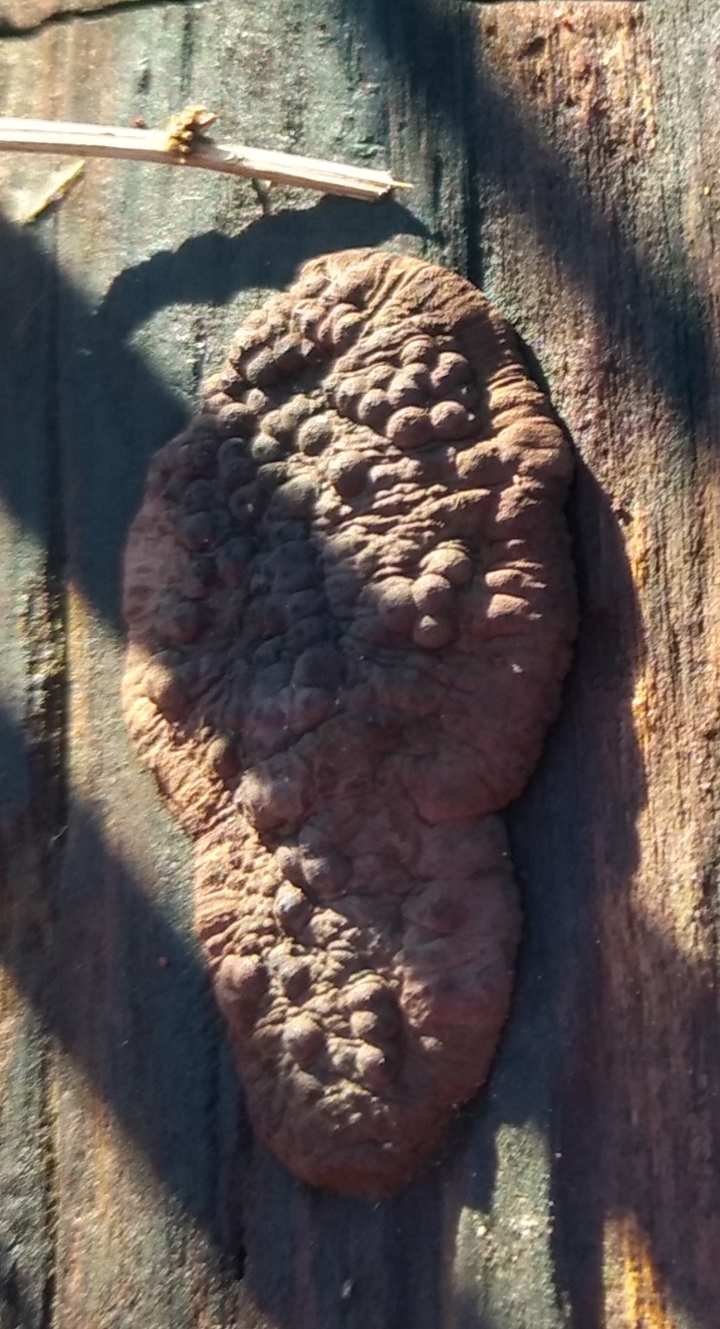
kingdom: Fungi
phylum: Ascomycota
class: Sordariomycetes
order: Xylariales
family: Hypoxylaceae
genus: Jackrogersella
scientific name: Jackrogersella multiformis
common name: foranderlig kulbær
